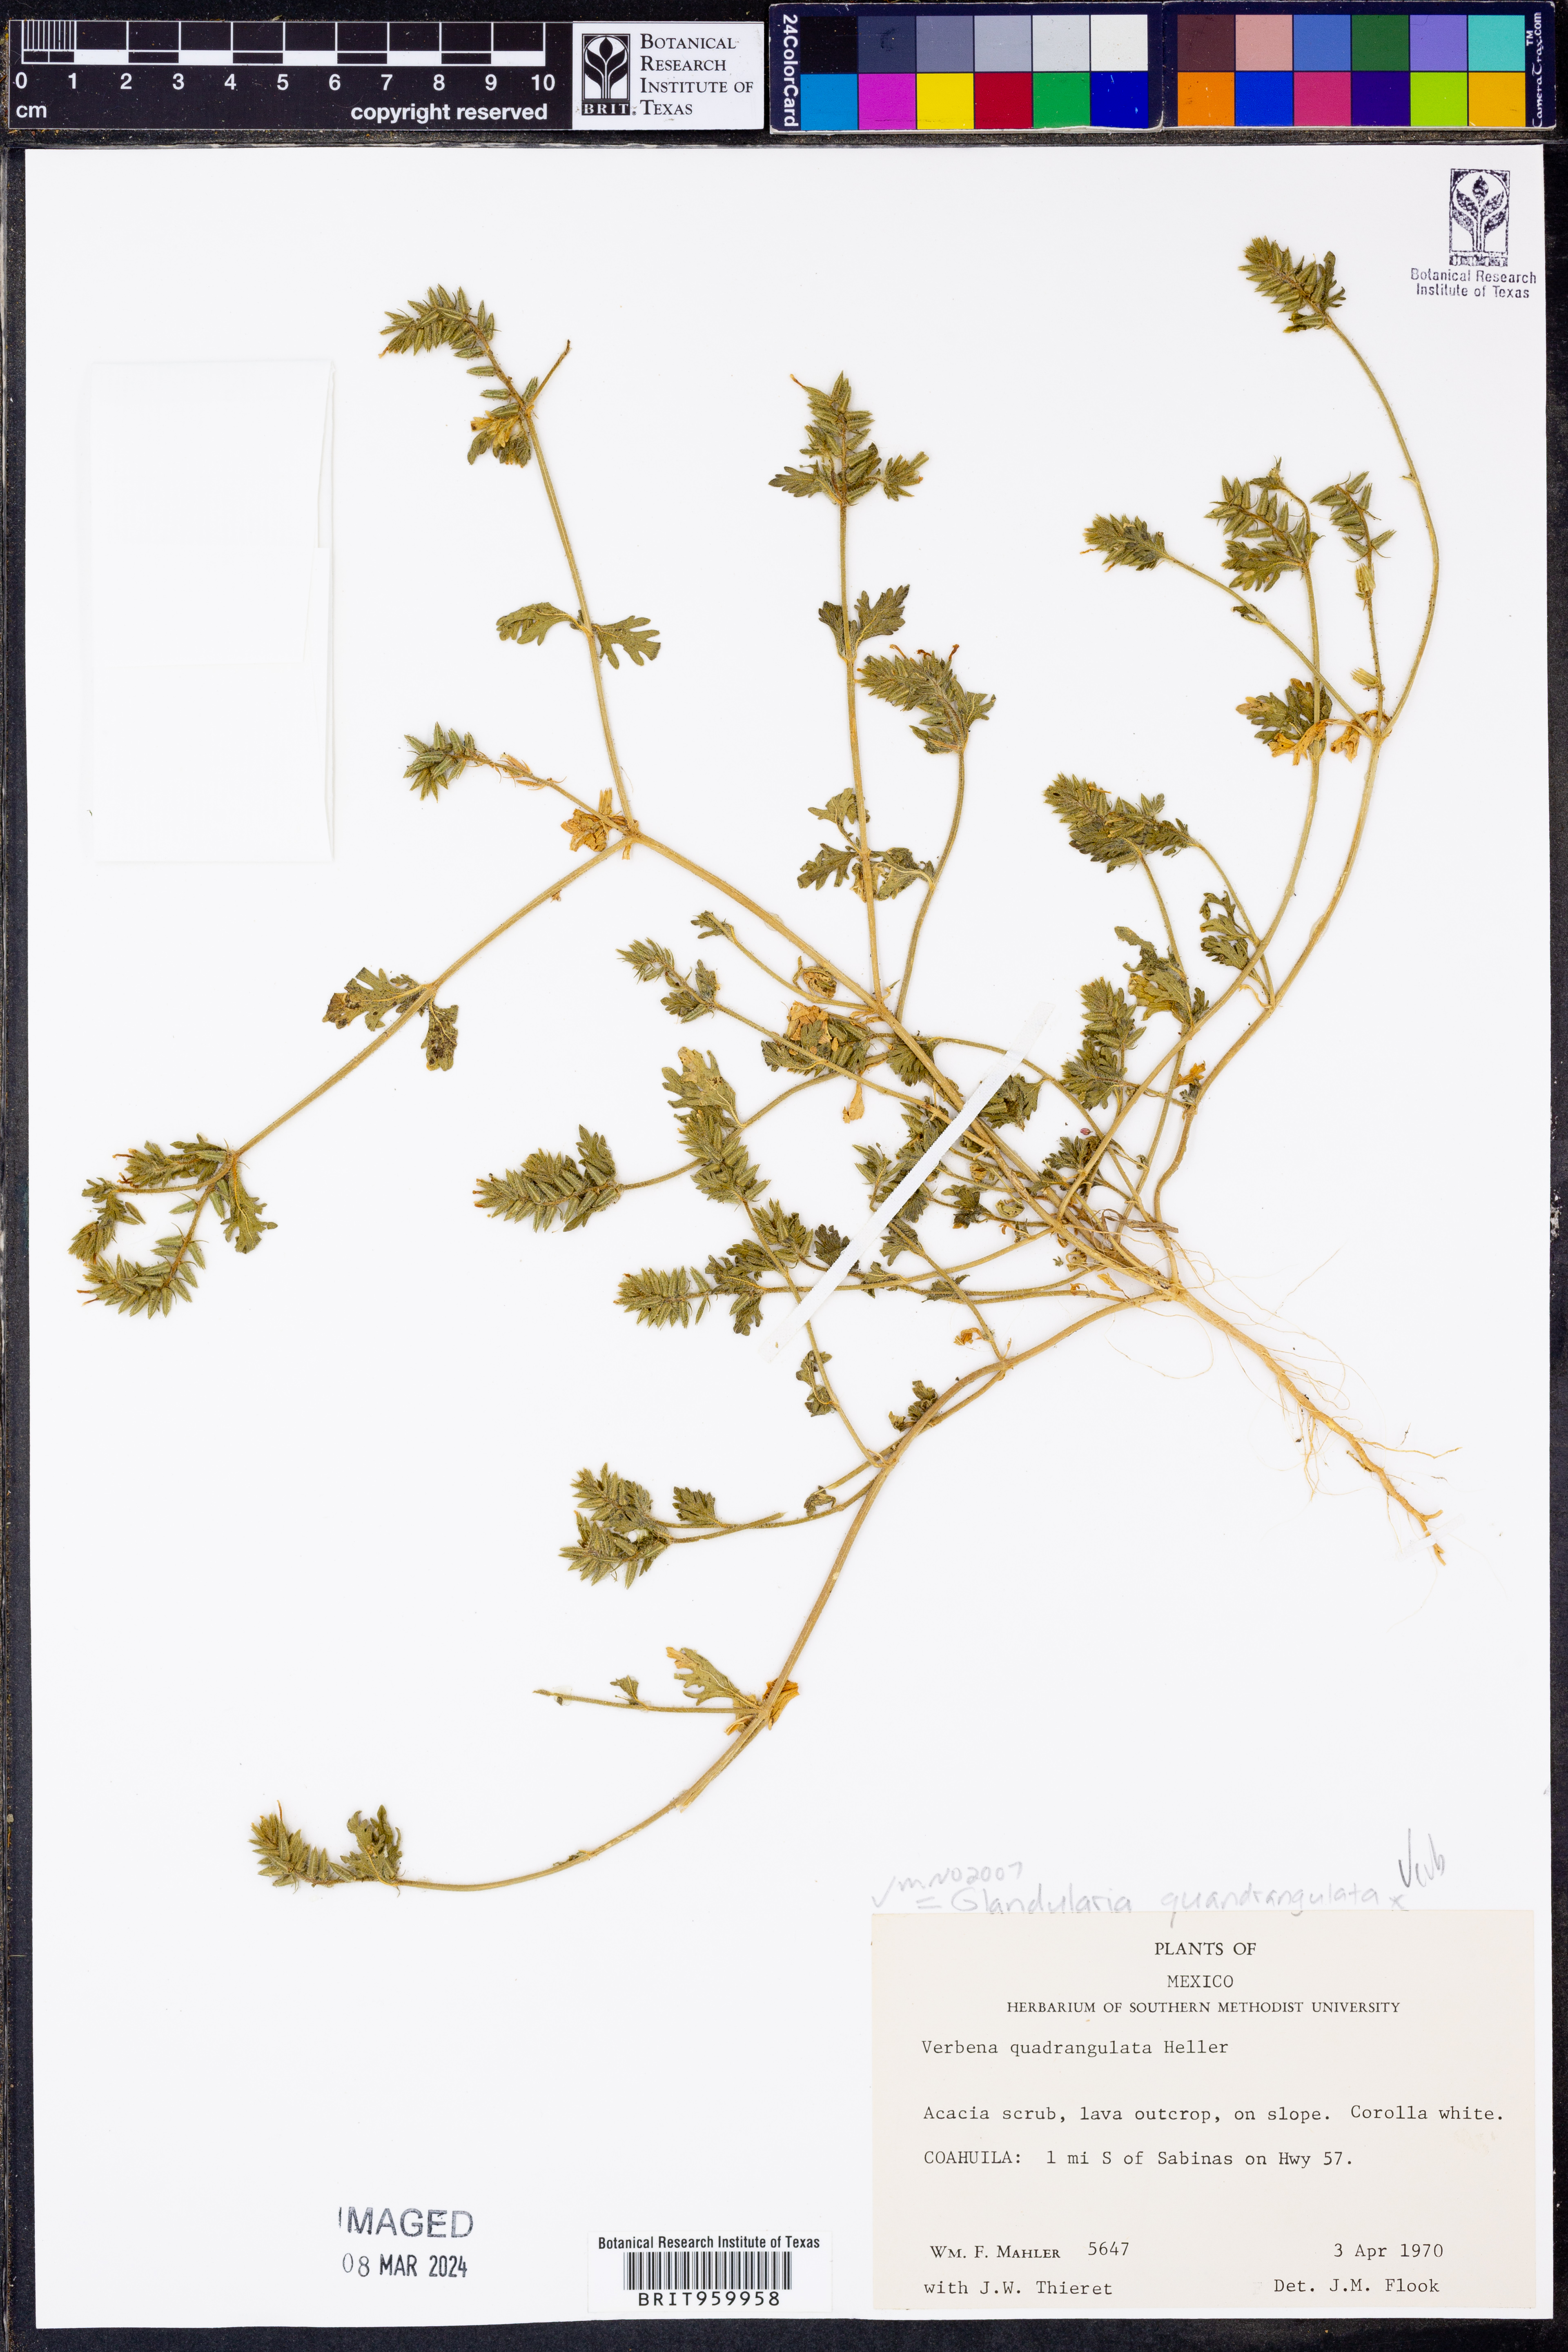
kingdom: Plantae
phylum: Tracheophyta
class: Magnoliopsida
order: Lamiales
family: Verbenaceae
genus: Verbena
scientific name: Verbena quadrangulata
